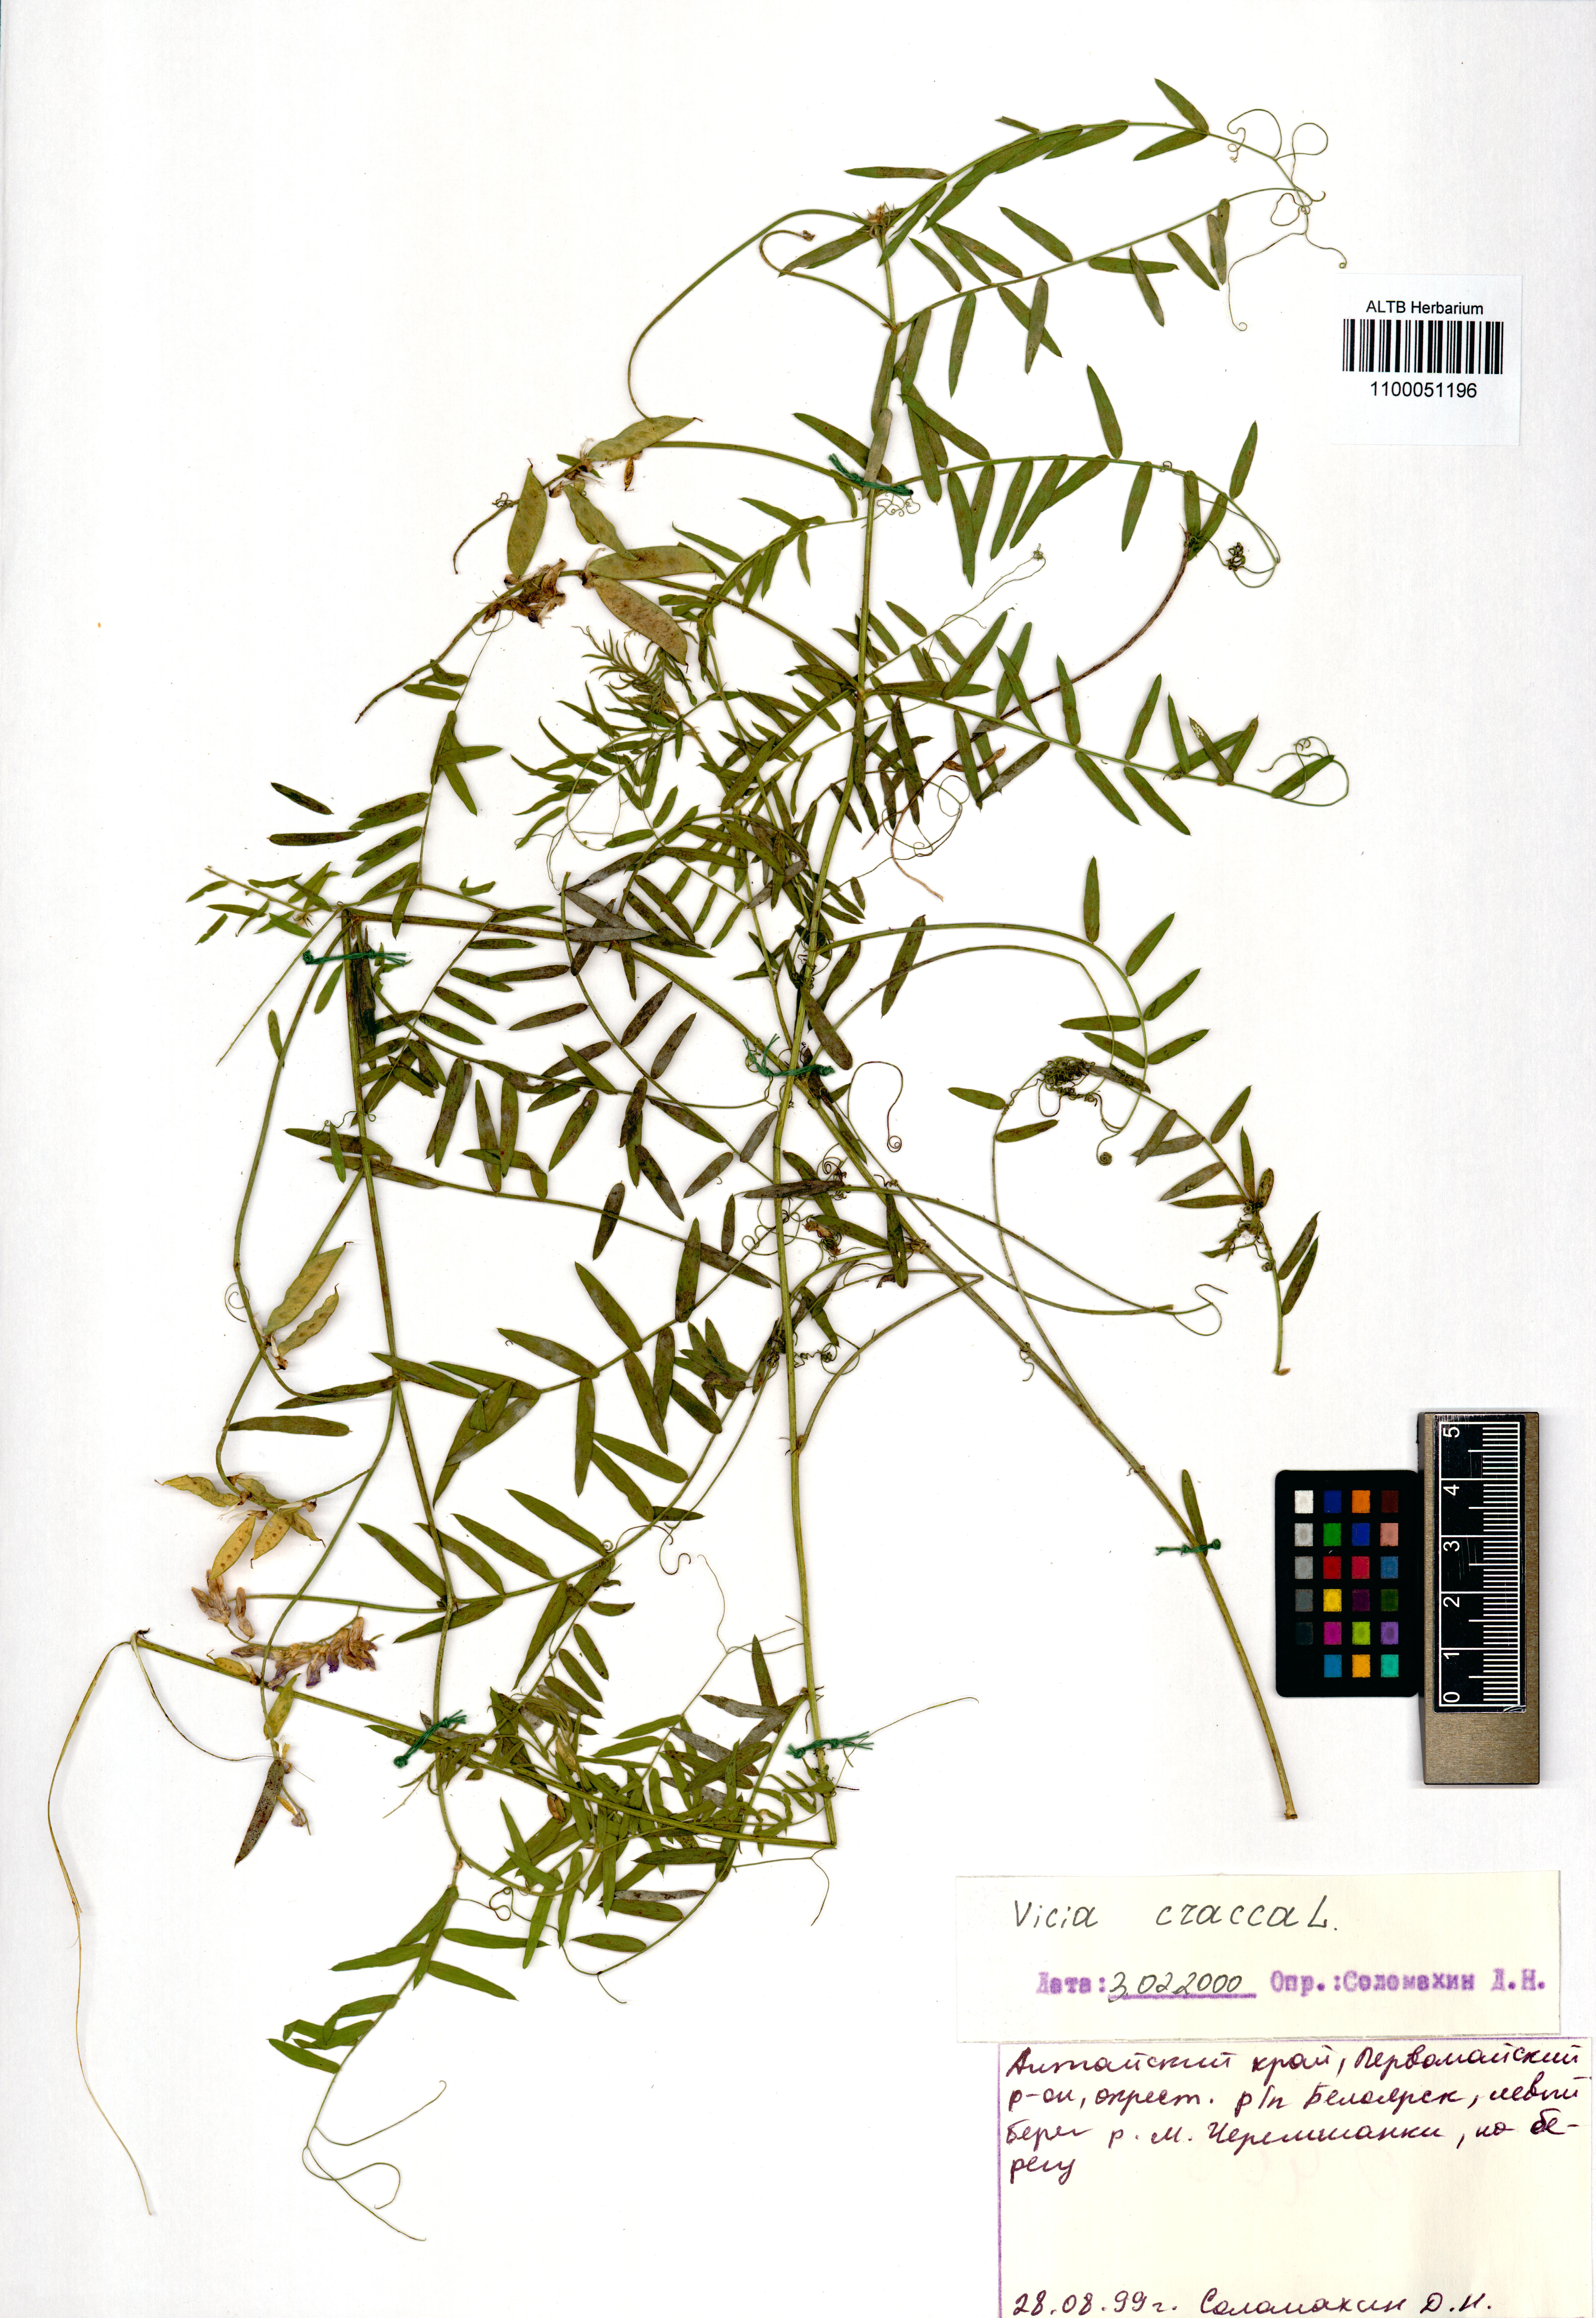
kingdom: Plantae
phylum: Tracheophyta
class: Magnoliopsida
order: Fabales
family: Fabaceae
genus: Vicia
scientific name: Vicia cracca
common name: Bird vetch
